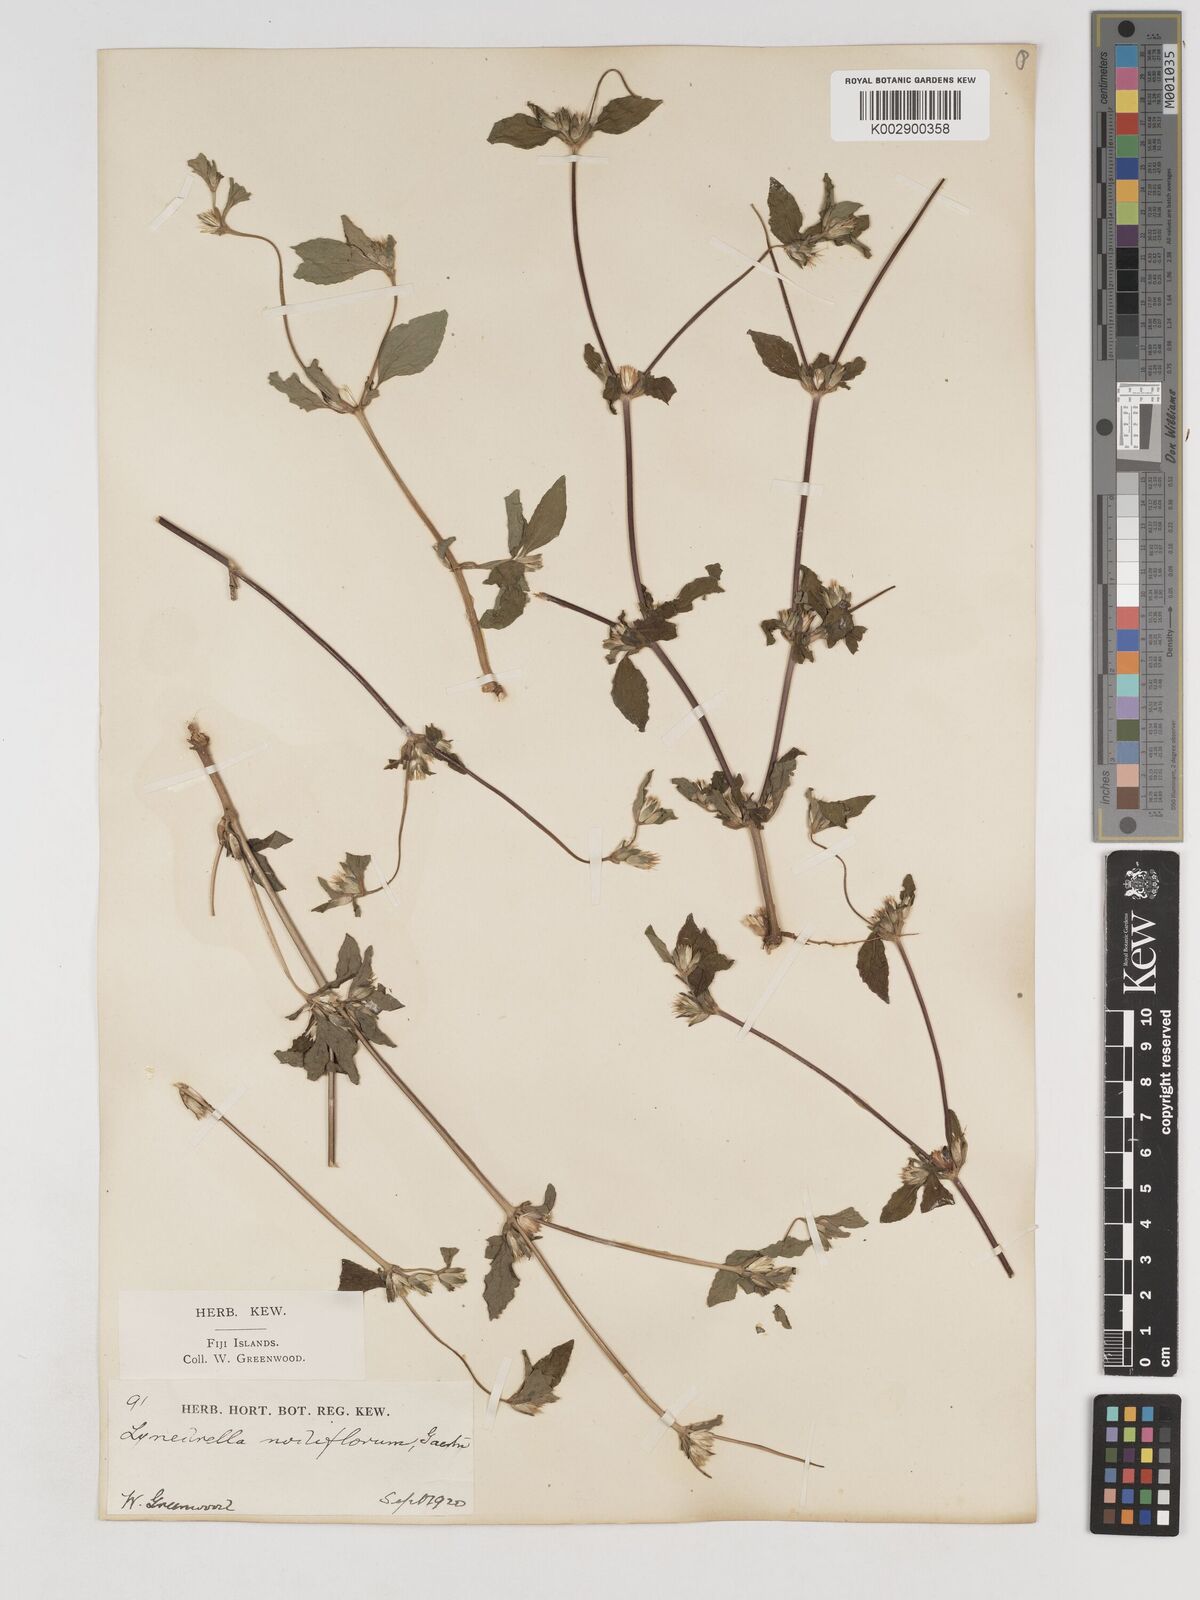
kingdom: Plantae
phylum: Tracheophyta
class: Magnoliopsida
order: Asterales
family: Asteraceae
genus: Synedrella
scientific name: Synedrella nodiflora
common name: Nodeweed
